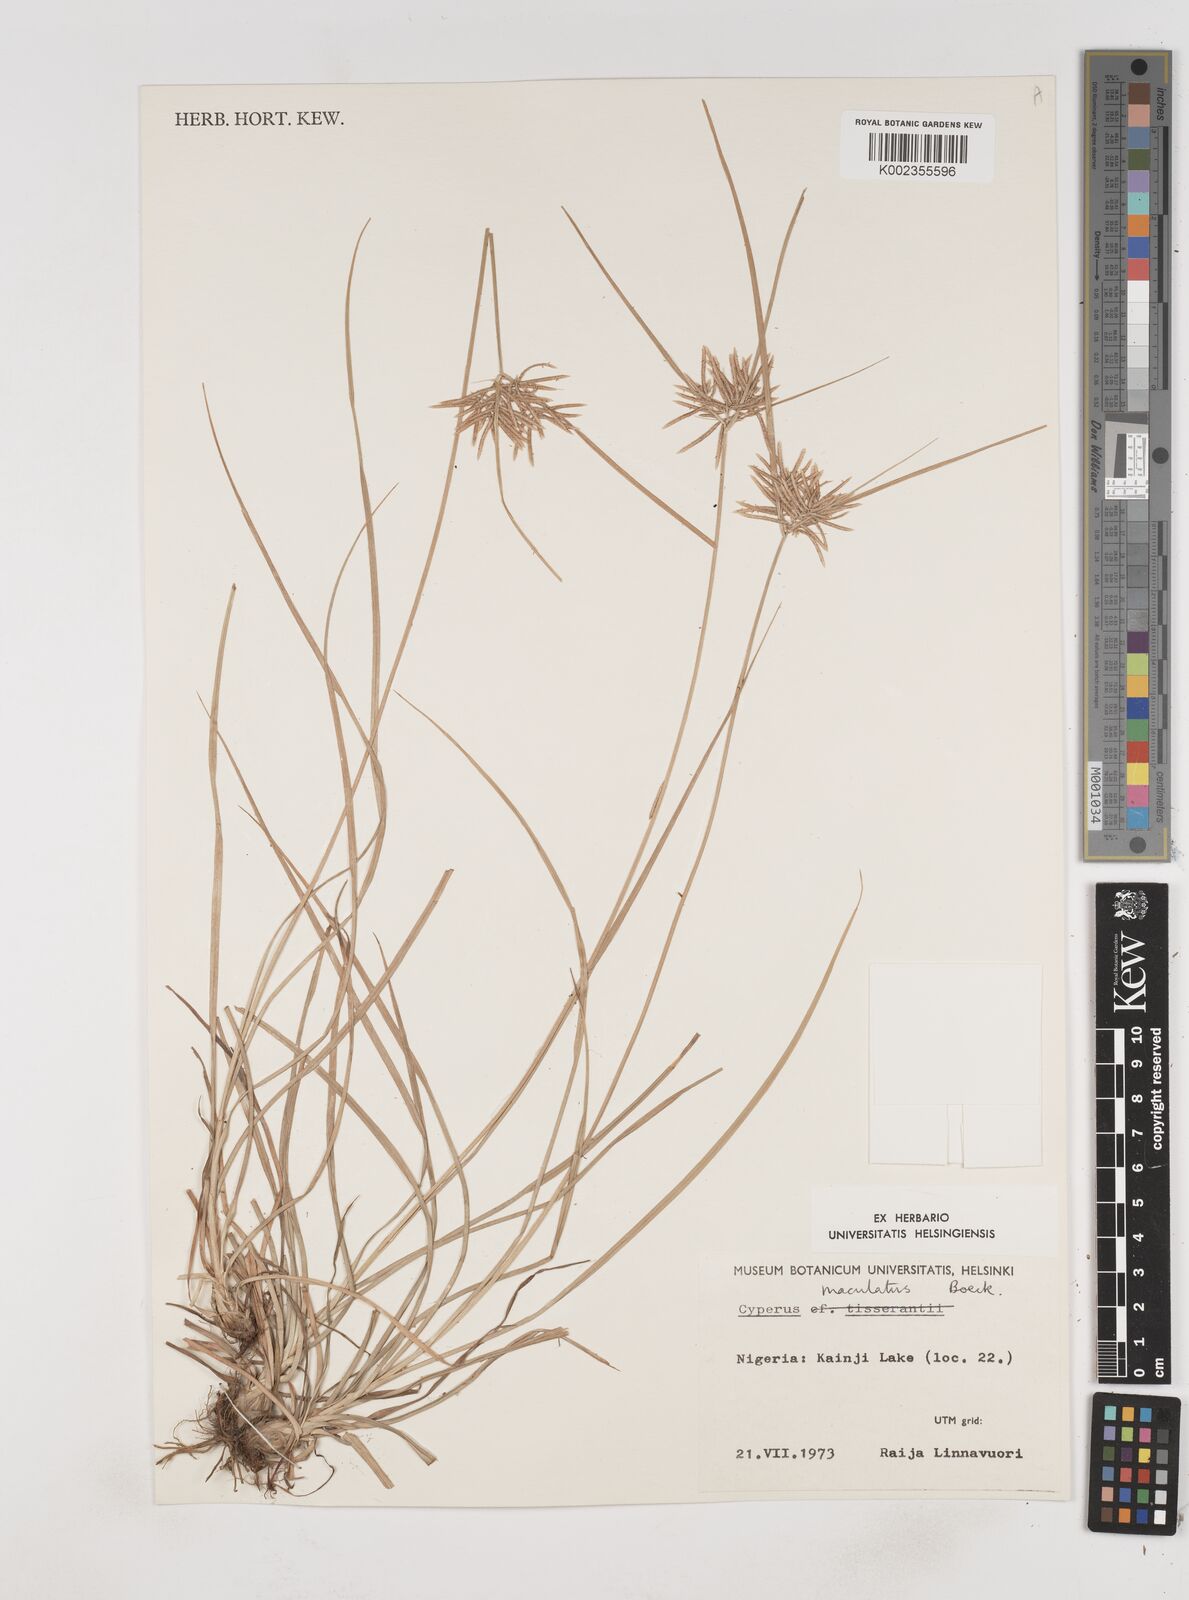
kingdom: Plantae
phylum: Tracheophyta
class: Liliopsida
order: Poales
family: Cyperaceae
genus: Cyperus
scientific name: Cyperus maculatus
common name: Maculated sedge
